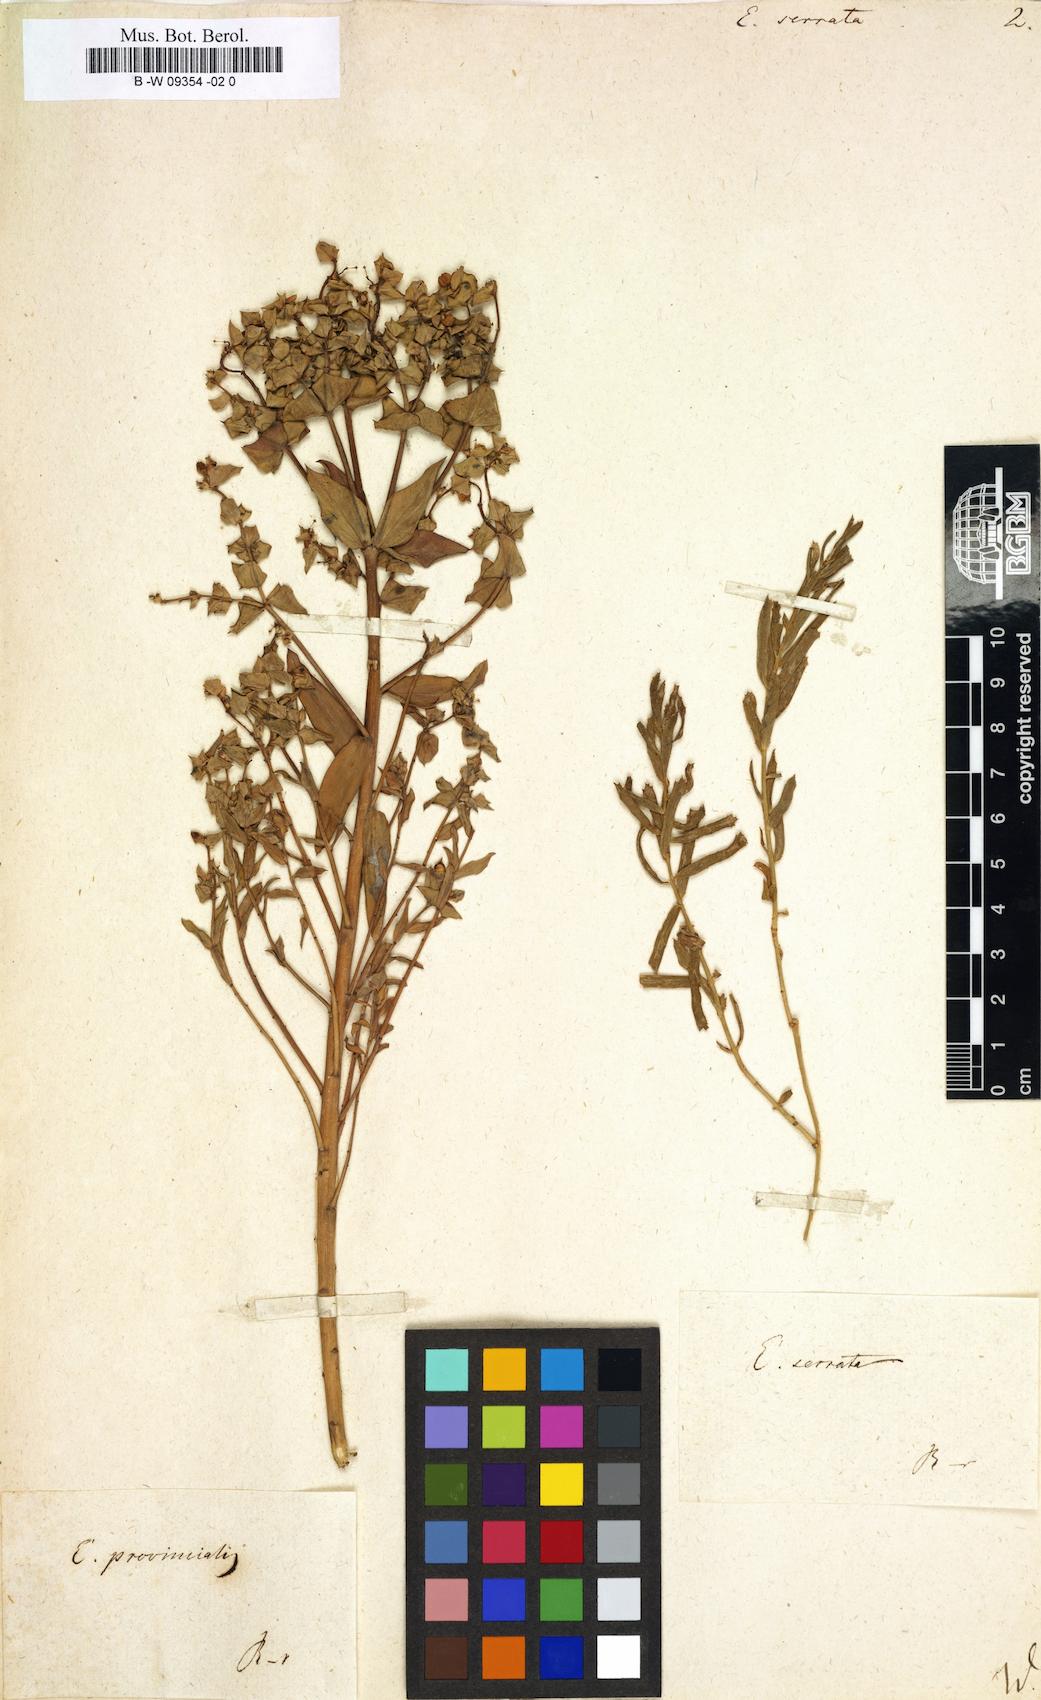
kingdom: Plantae
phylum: Tracheophyta
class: Magnoliopsida
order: Malpighiales
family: Euphorbiaceae
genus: Euphorbia
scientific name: Euphorbia serrata
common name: Serrate spurge
